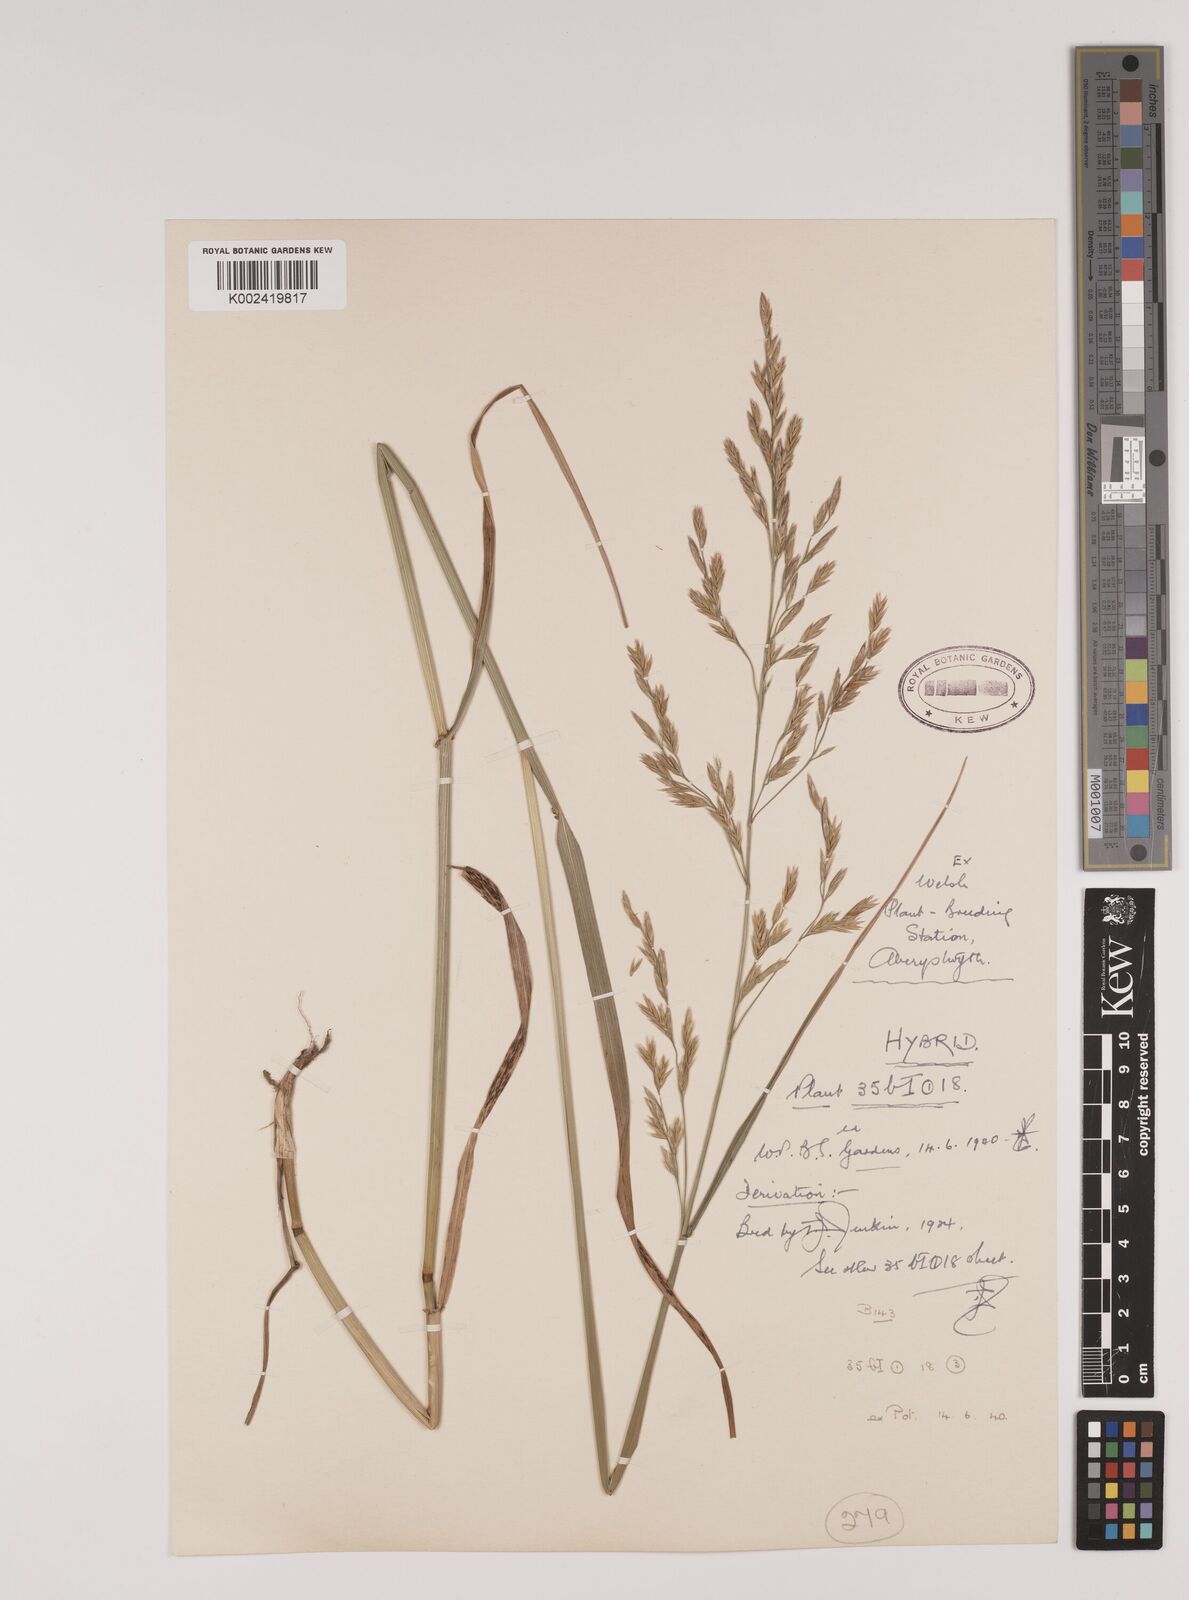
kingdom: Plantae
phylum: Tracheophyta
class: Liliopsida
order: Poales
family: Poaceae
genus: Festuca
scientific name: Festuca rubra
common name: Red fescue
